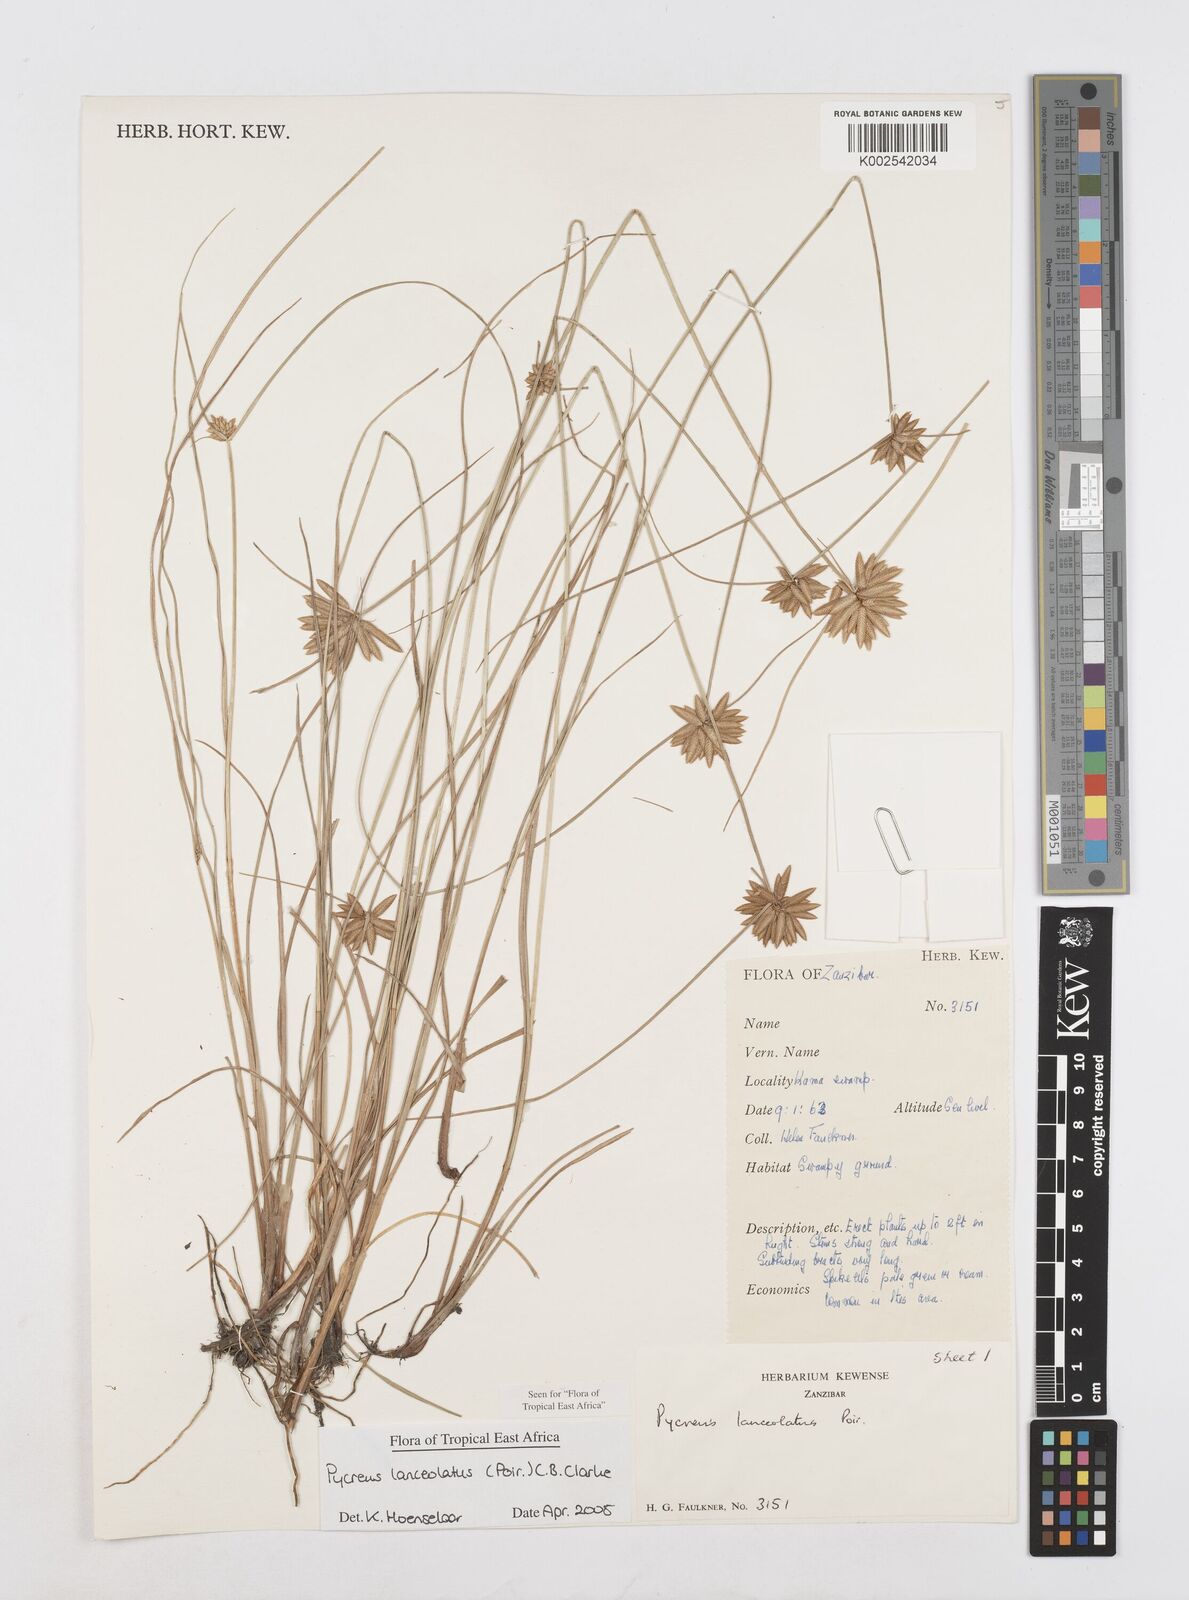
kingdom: Plantae
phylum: Tracheophyta
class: Liliopsida
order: Poales
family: Cyperaceae
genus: Cyperus
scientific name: Cyperus lanceolatus
